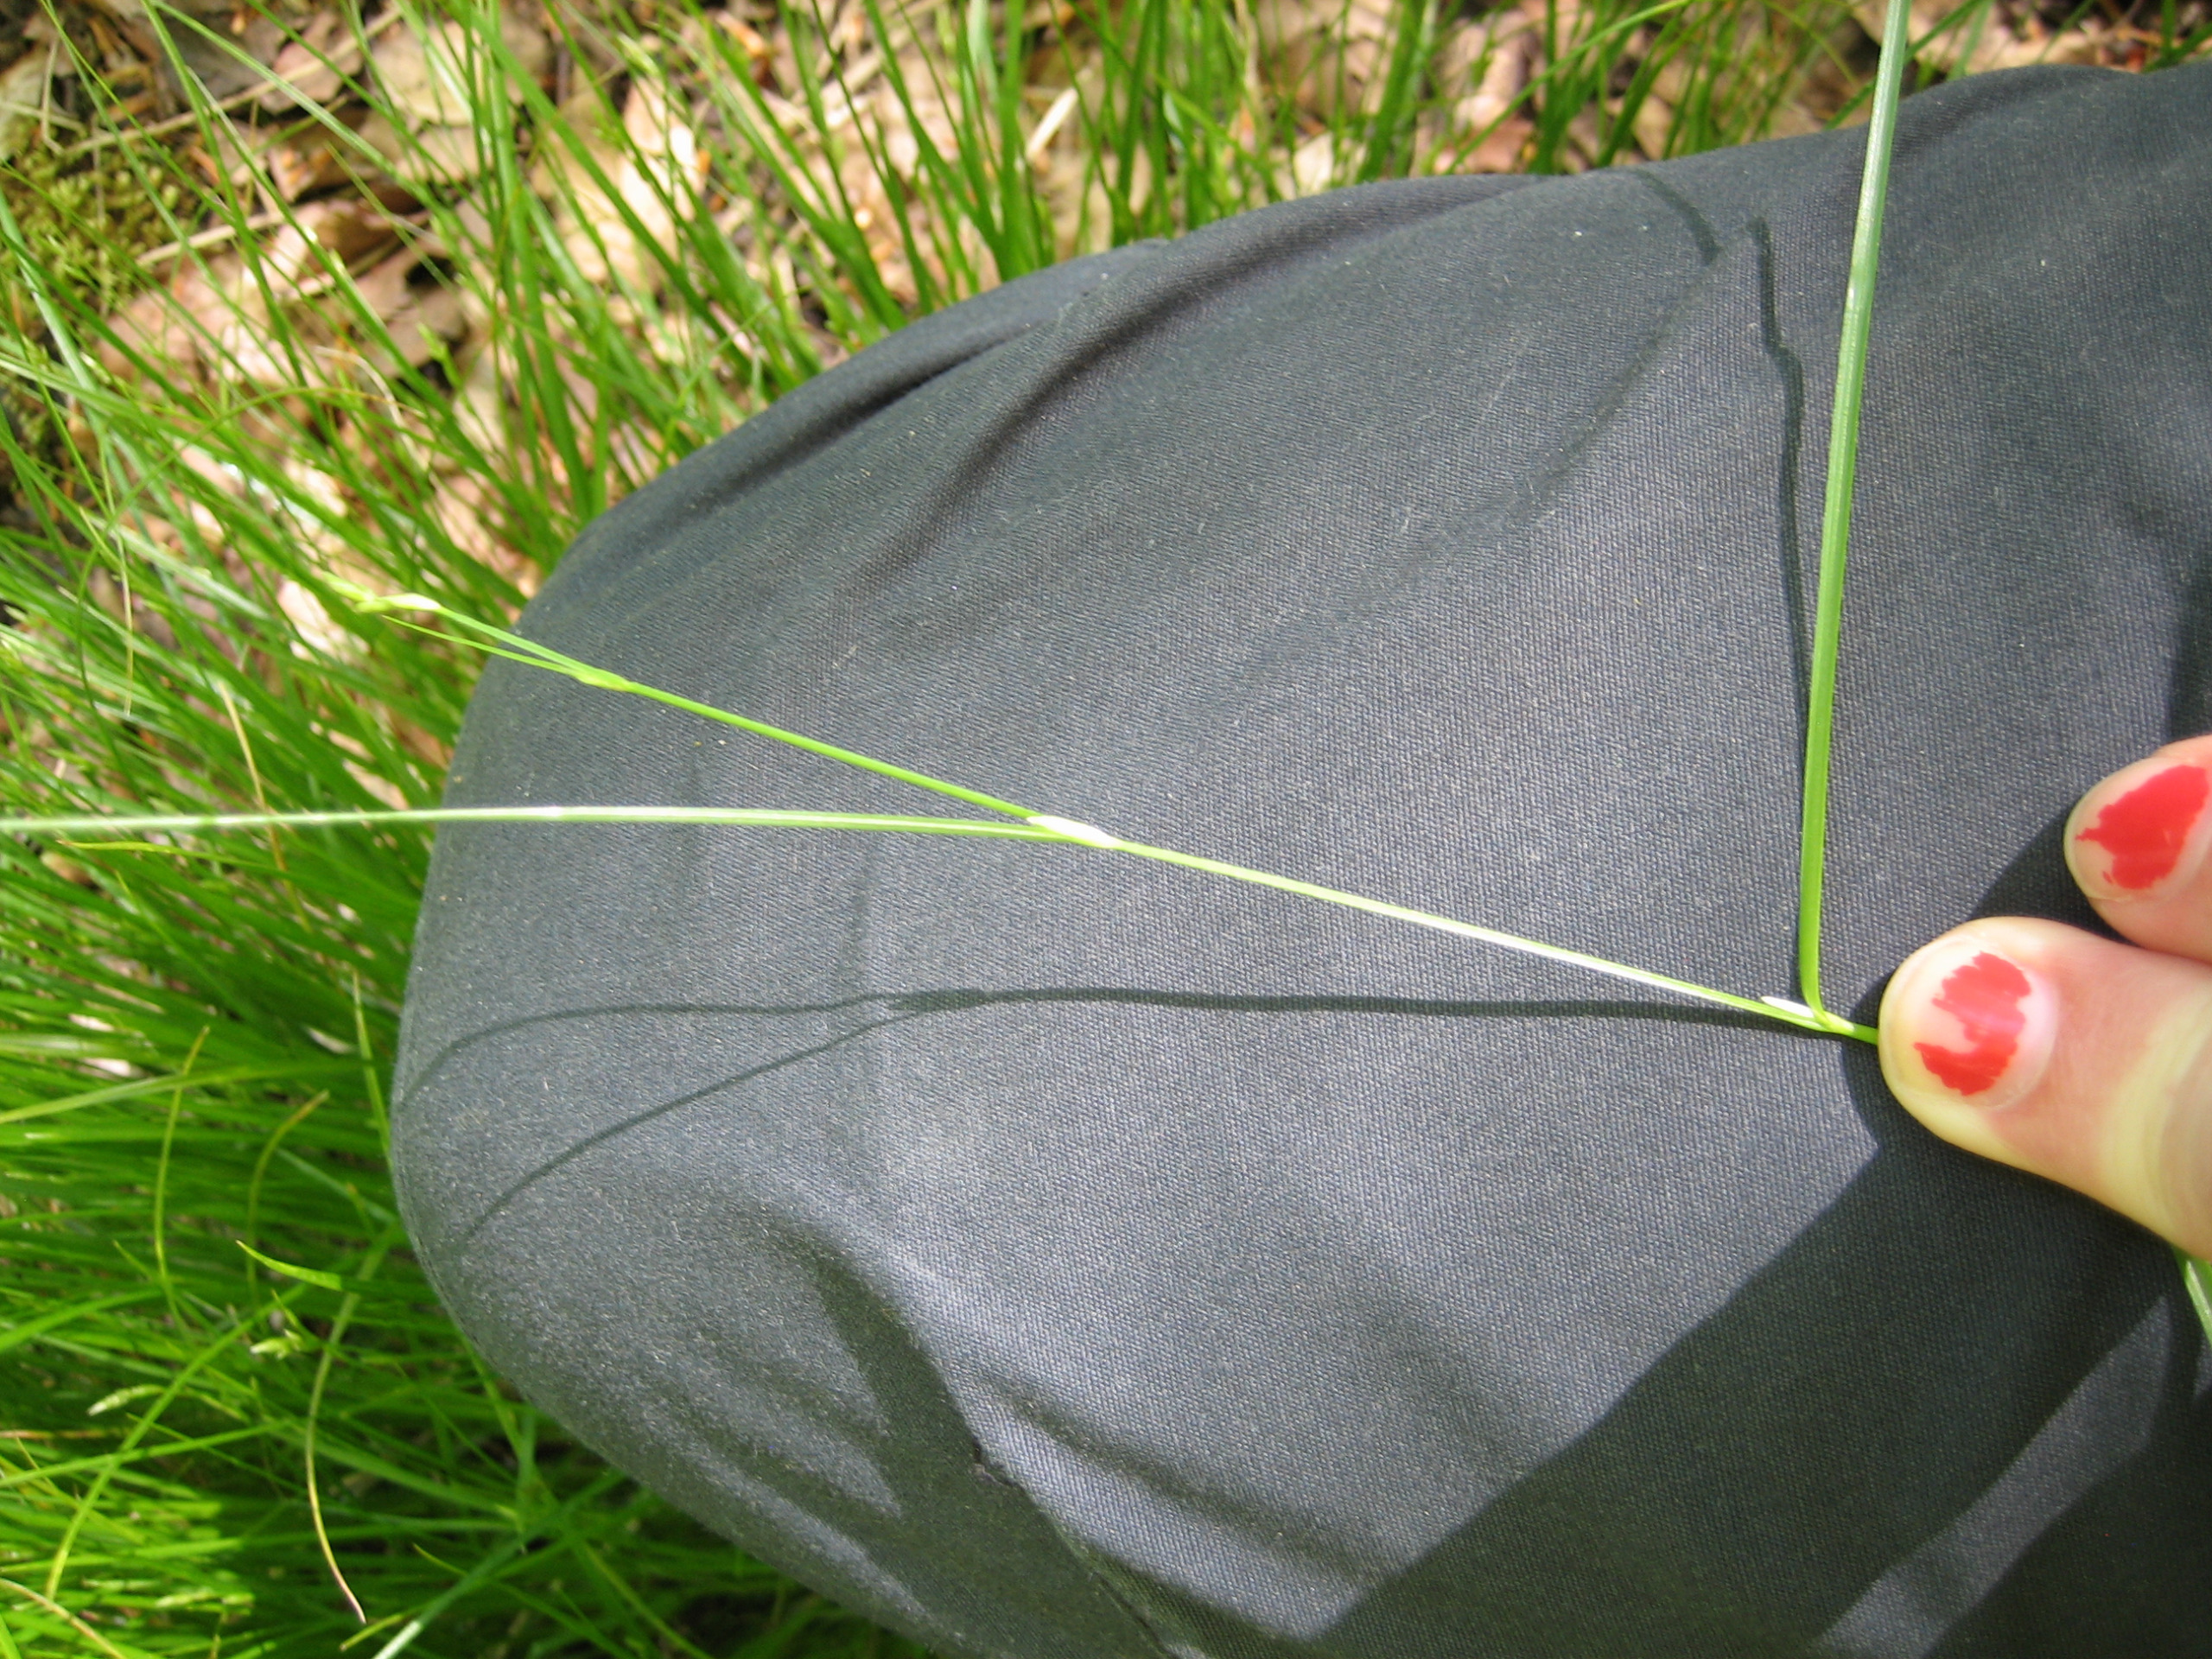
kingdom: Plantae
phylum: Tracheophyta
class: Liliopsida
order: Poales
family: Cyperaceae
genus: Carex
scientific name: Carex remota
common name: Akselblomstret star
